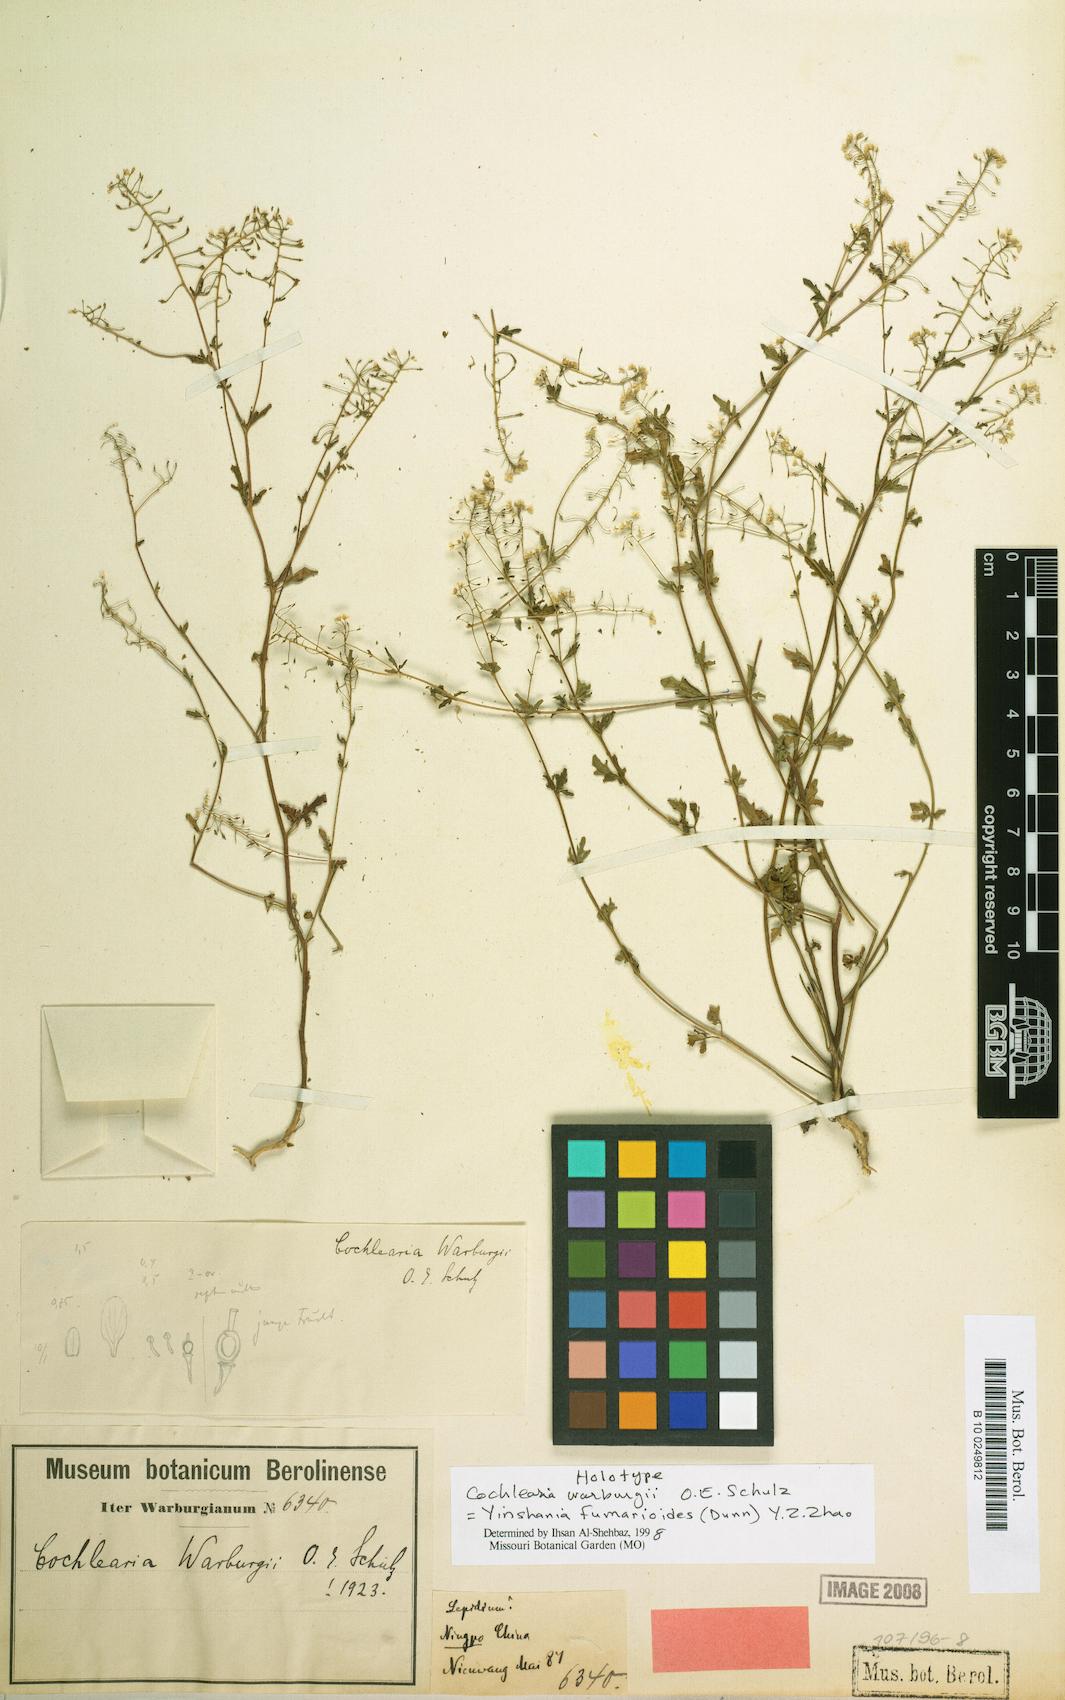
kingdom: Plantae
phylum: Tracheophyta
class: Magnoliopsida
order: Brassicales
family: Brassicaceae
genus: Hilliella
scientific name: Hilliella fumarioides
